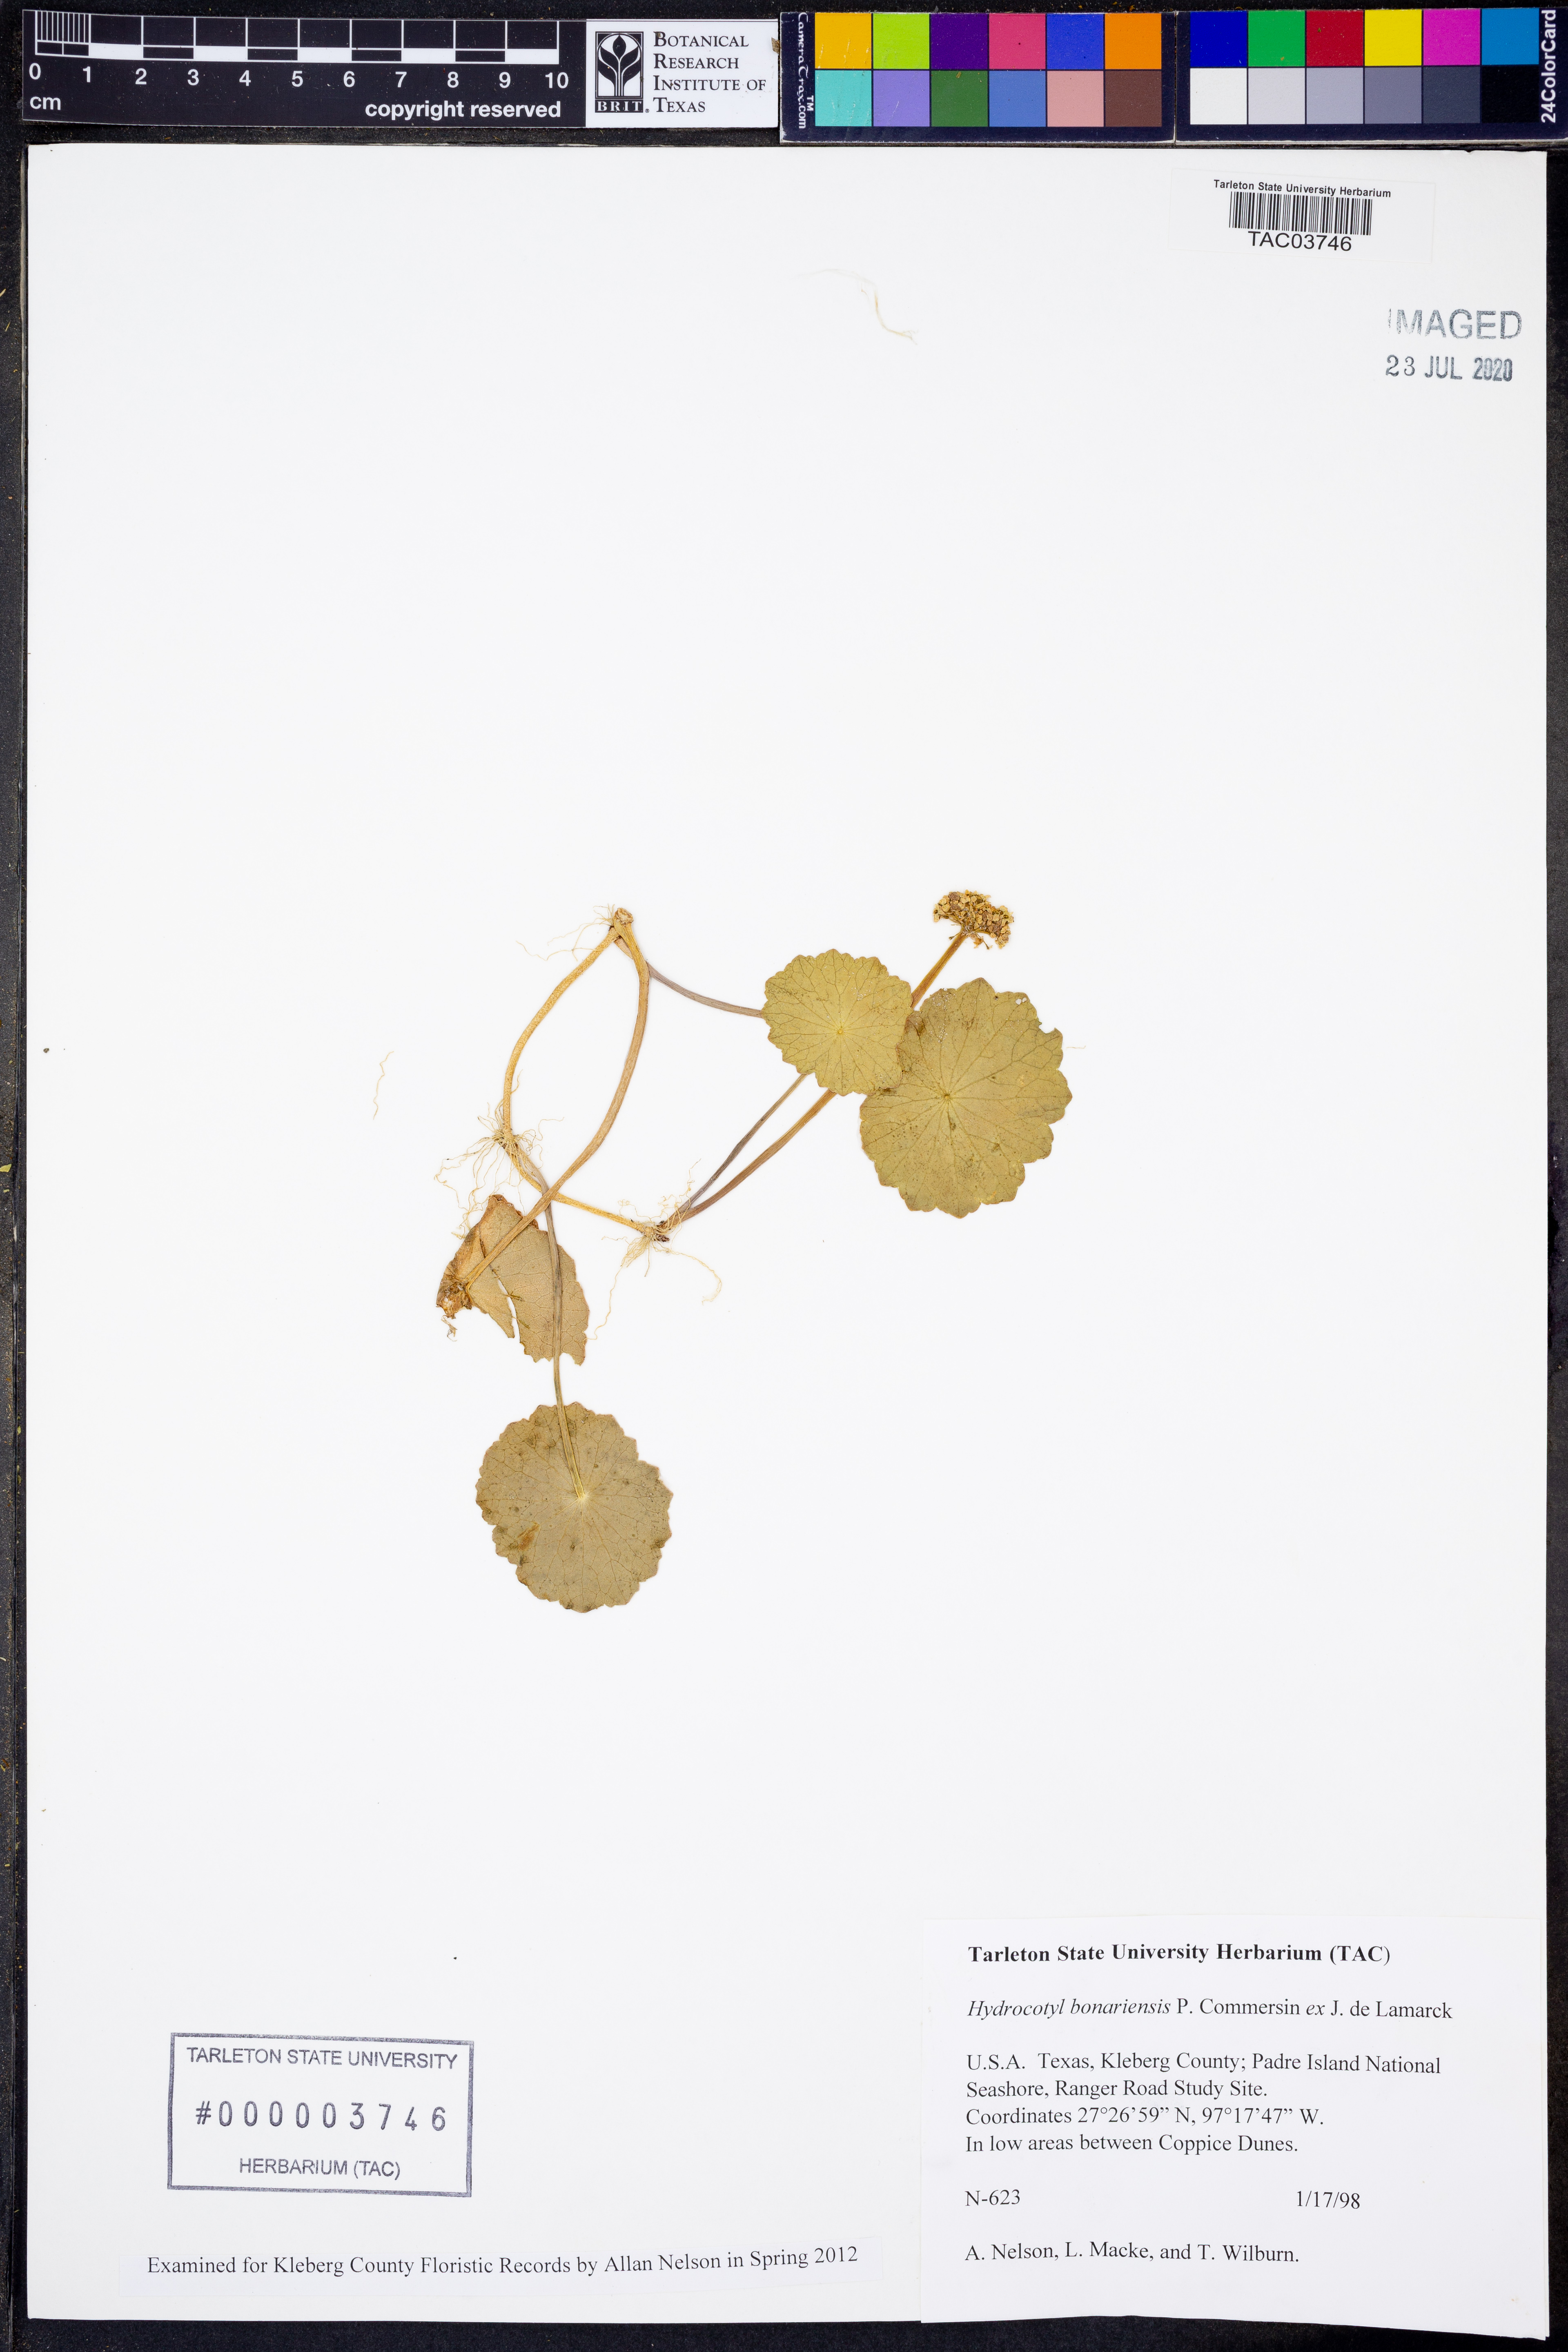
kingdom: Plantae
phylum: Tracheophyta
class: Magnoliopsida
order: Apiales
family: Araliaceae
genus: Hydrocotyle
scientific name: Hydrocotyle bonariensis
